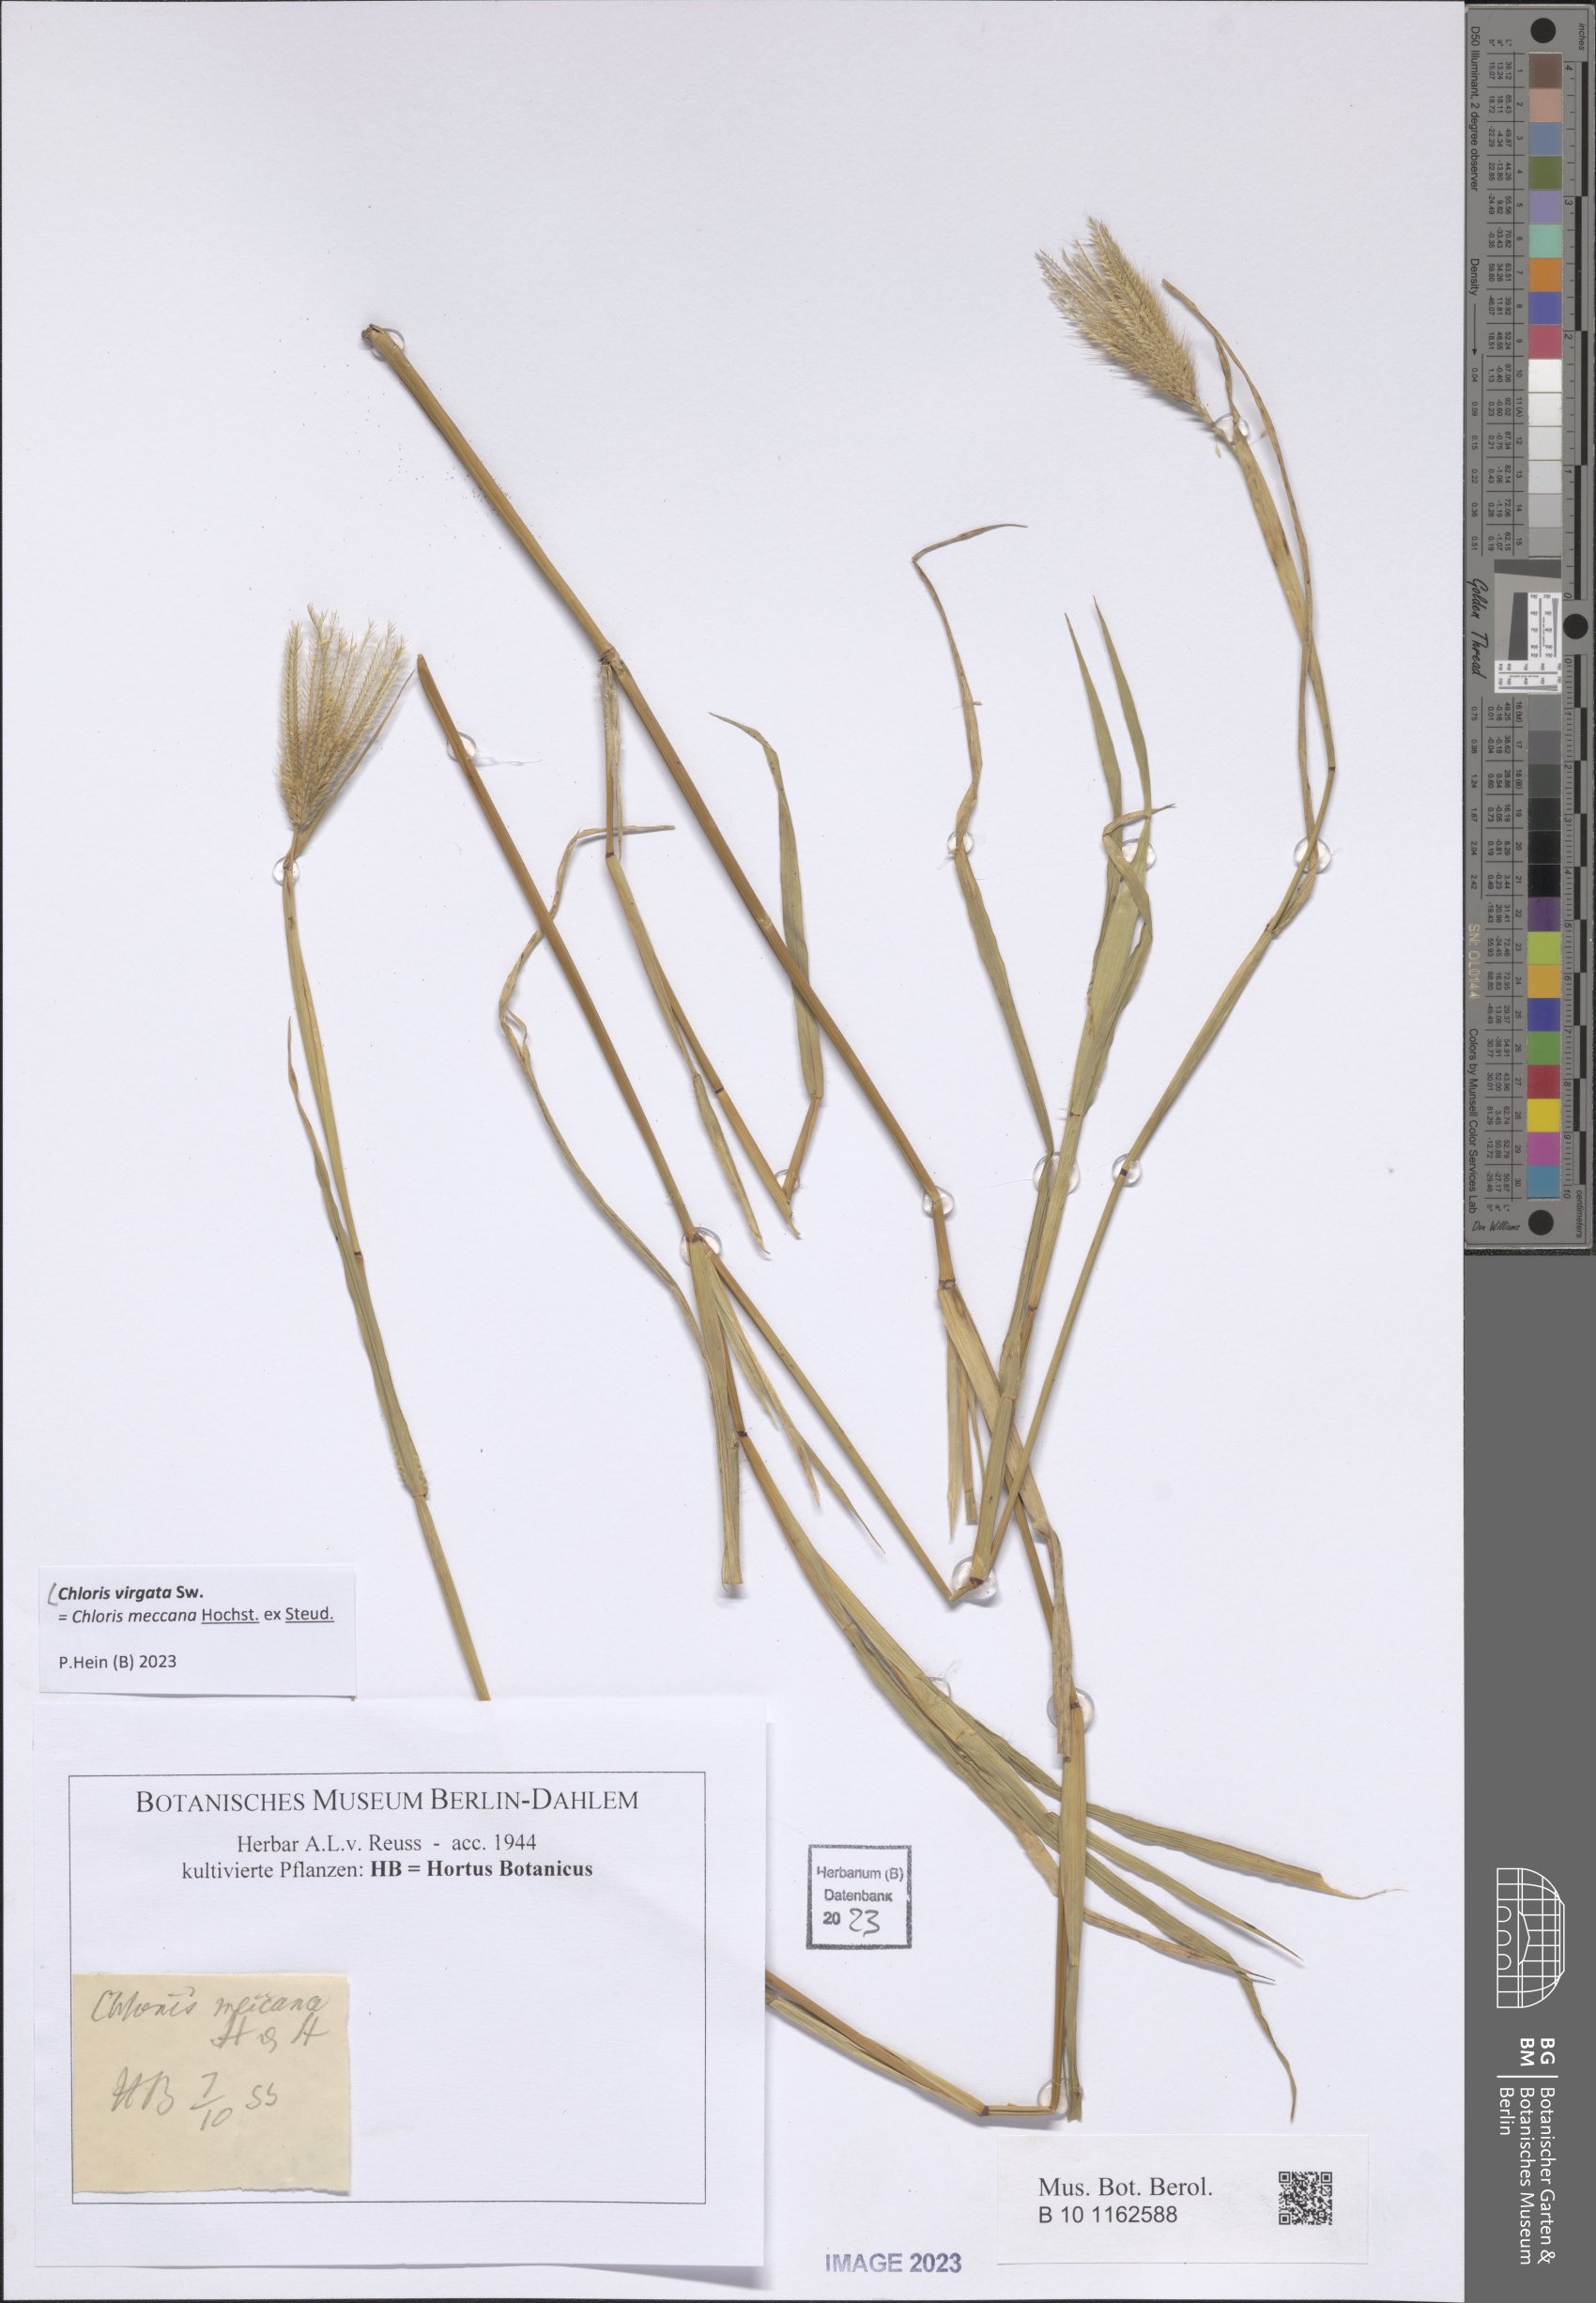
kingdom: Plantae
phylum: Tracheophyta
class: Liliopsida
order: Poales
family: Poaceae
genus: Chloris
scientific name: Chloris virgata
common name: Feathery rhodes-grass
